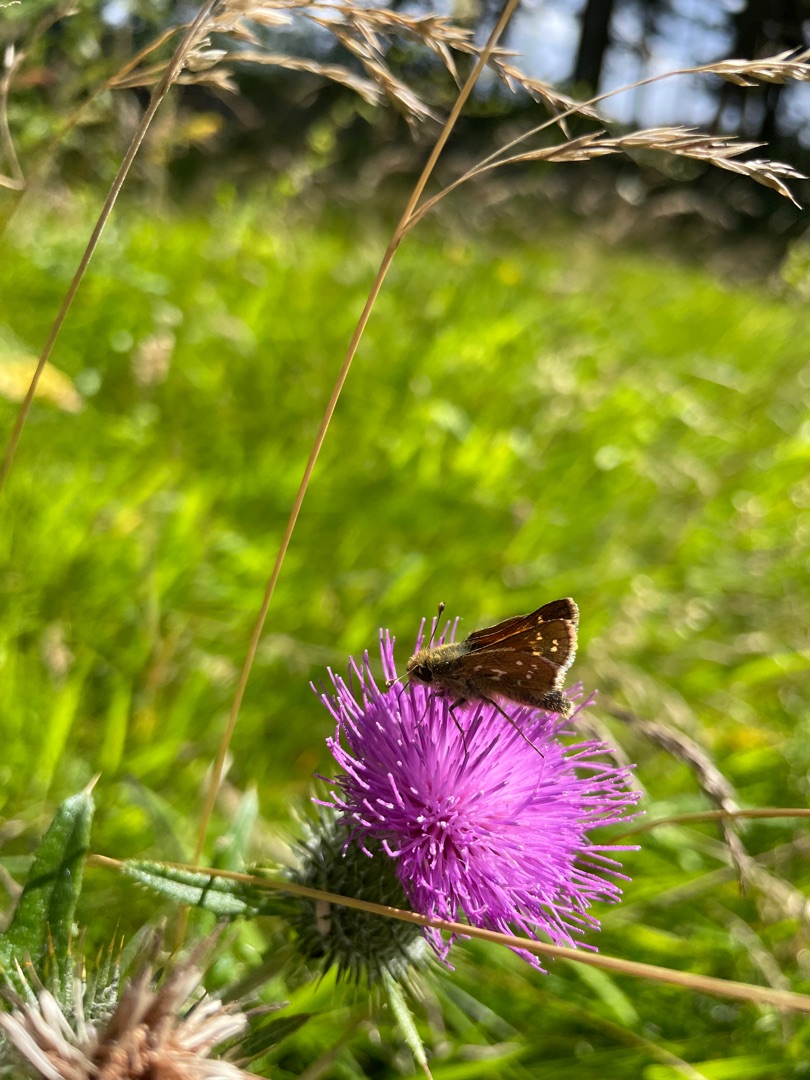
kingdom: Animalia
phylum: Arthropoda
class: Insecta
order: Lepidoptera
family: Hesperiidae
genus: Hesperia
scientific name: Hesperia comma
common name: Kommabredpande
